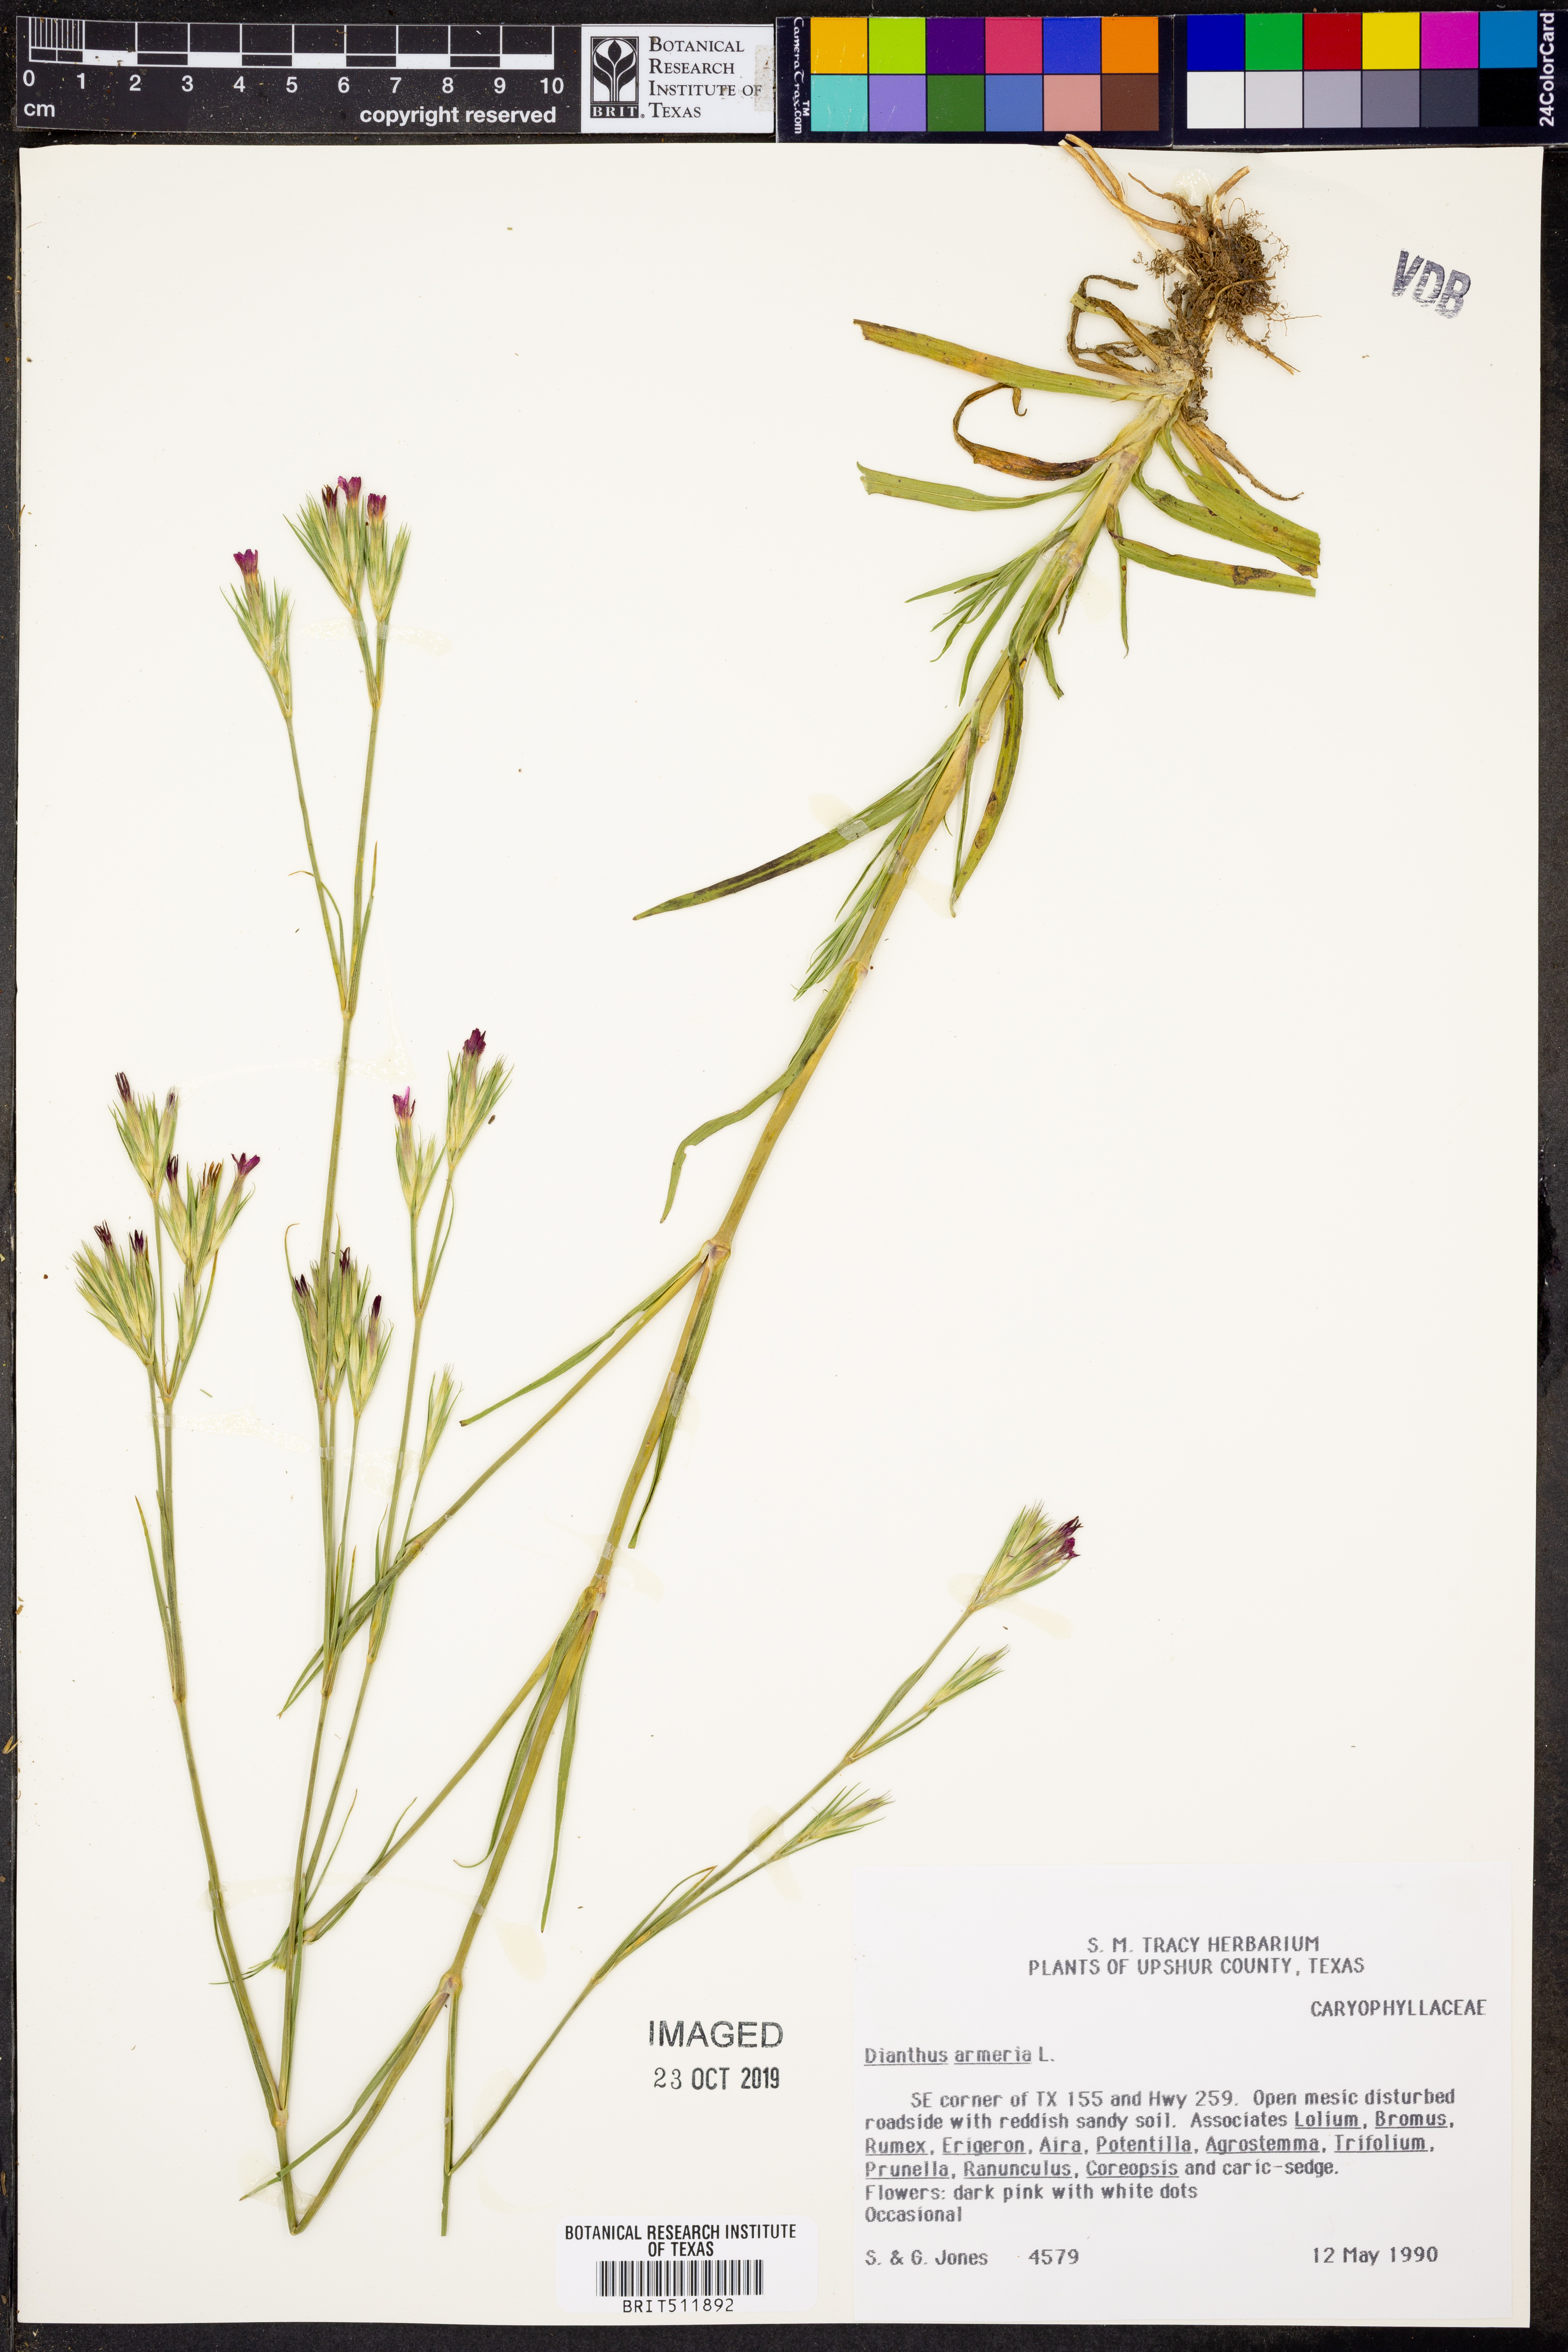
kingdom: Plantae
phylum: Tracheophyta
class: Magnoliopsida
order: Caryophyllales
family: Caryophyllaceae
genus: Dianthus
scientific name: Dianthus armeria
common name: Deptford pink
